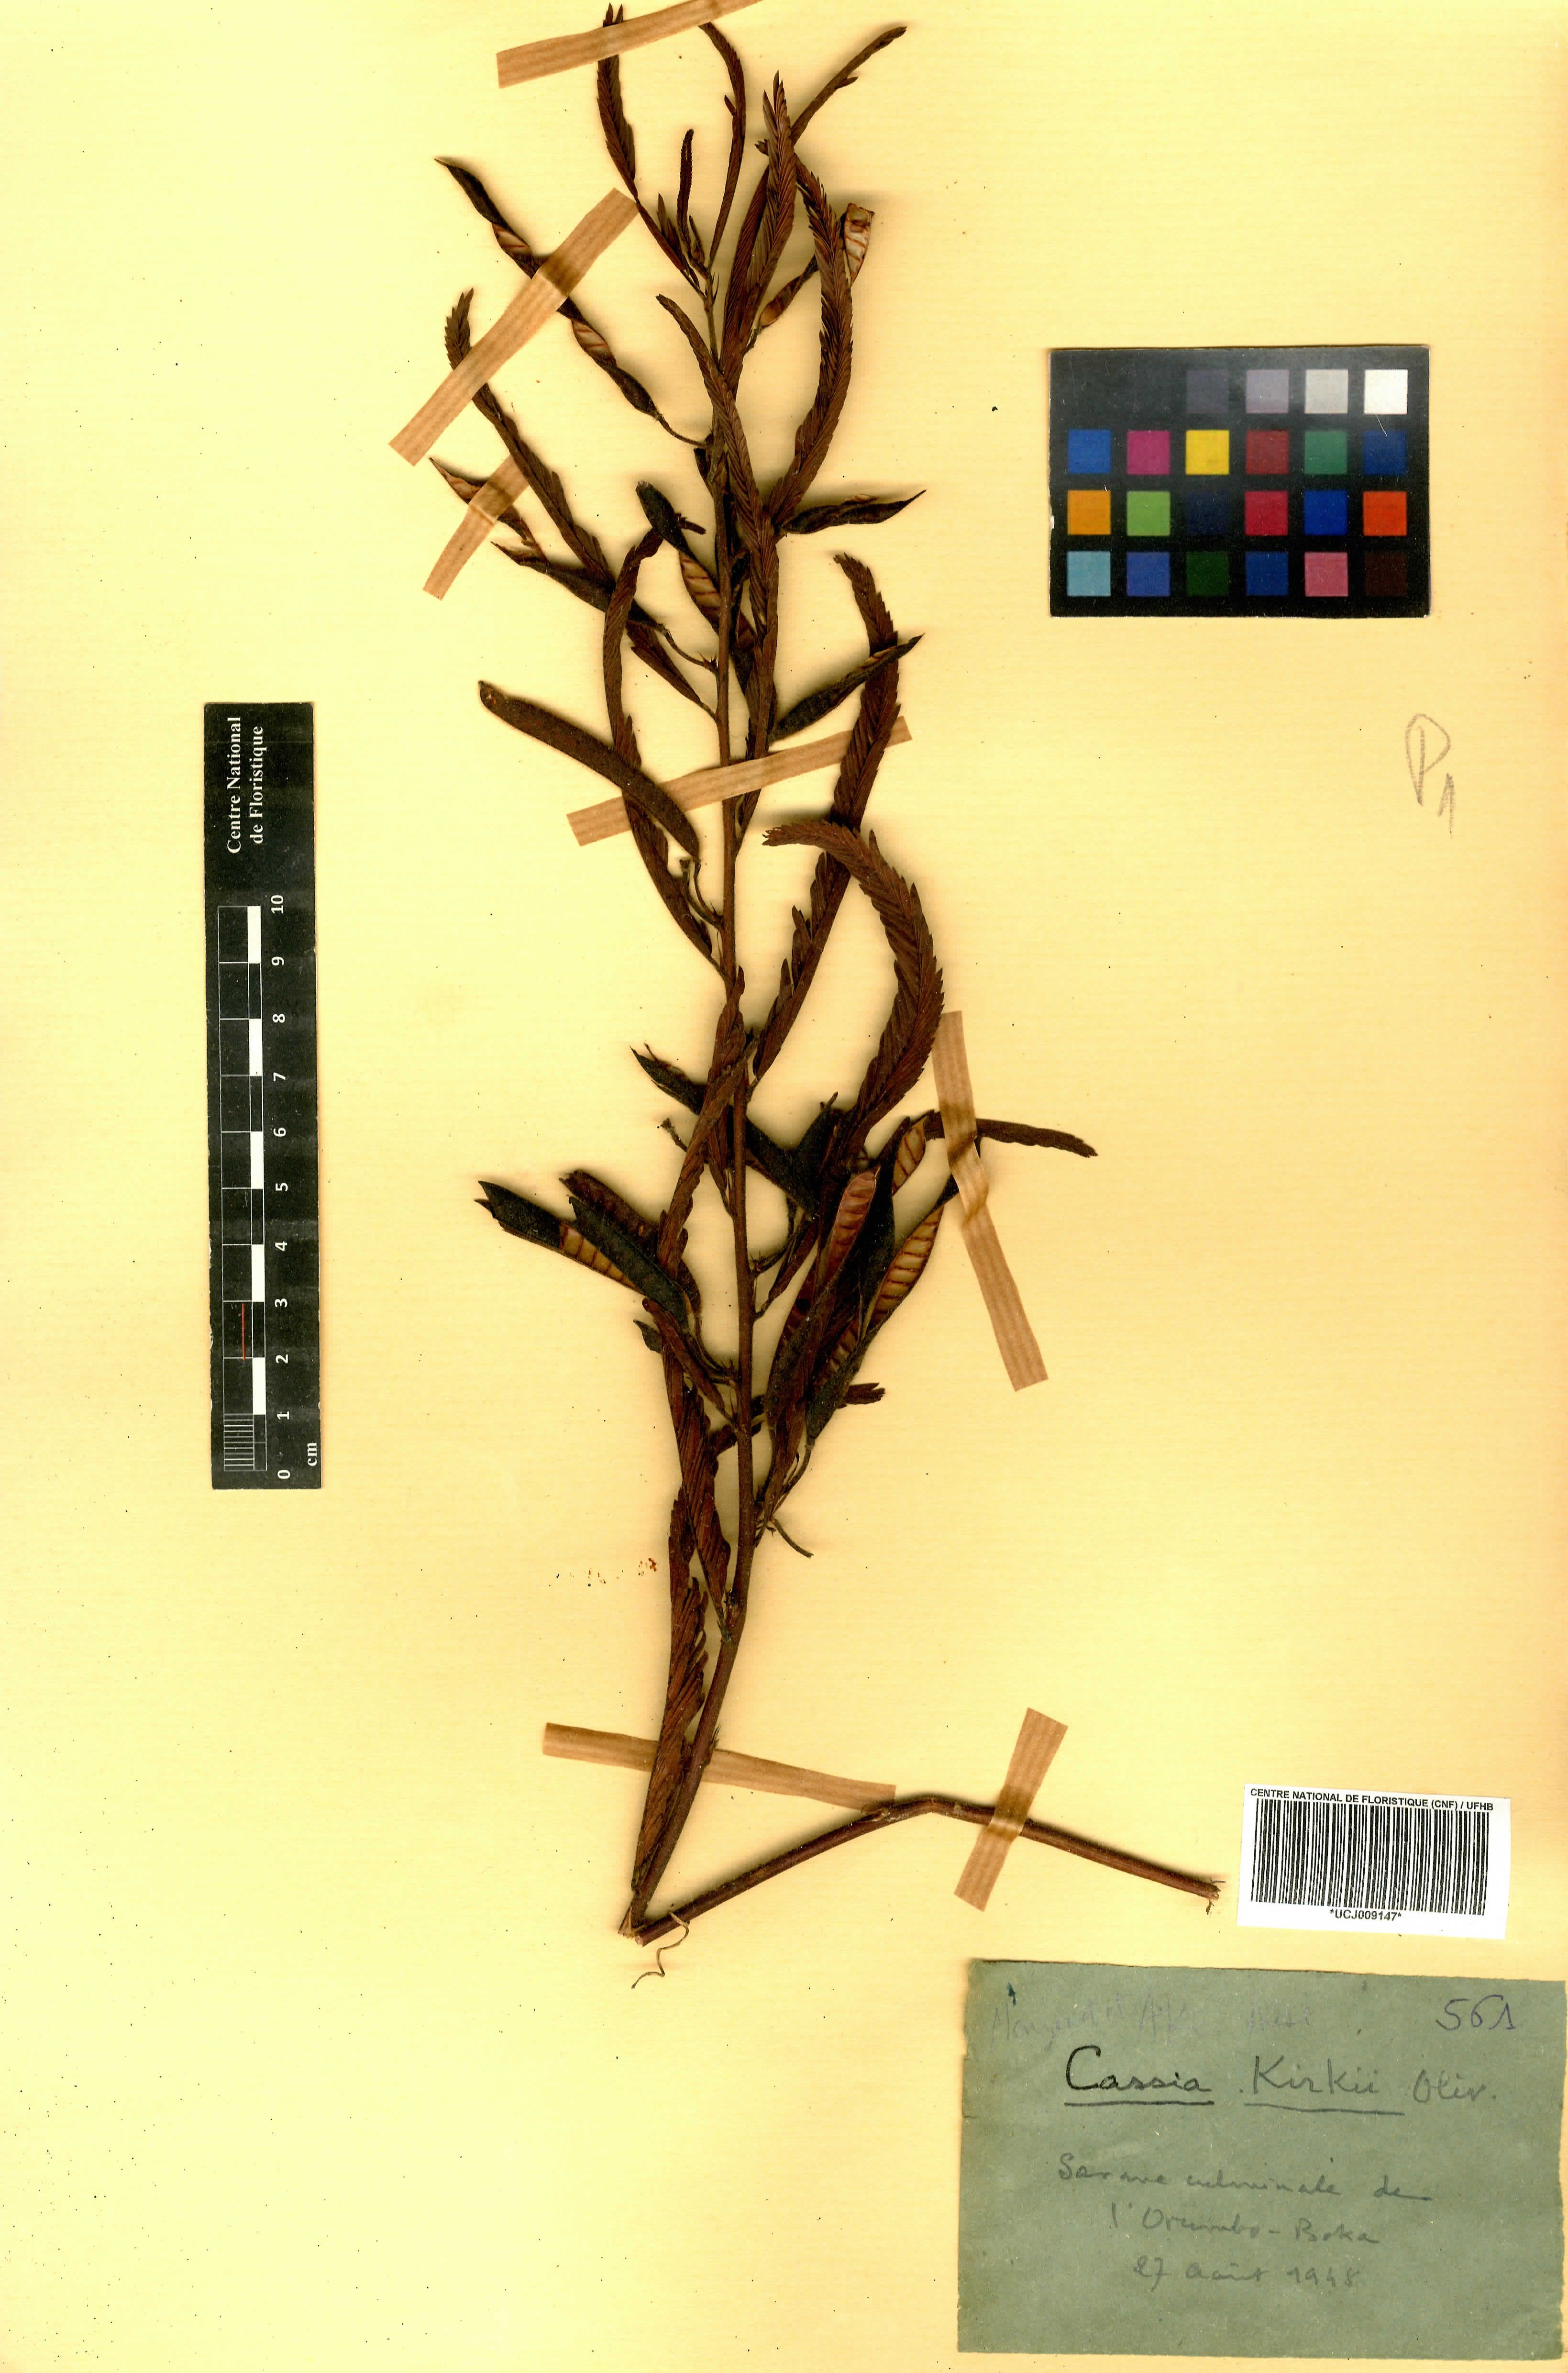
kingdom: Plantae
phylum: Tracheophyta
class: Magnoliopsida
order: Fabales
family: Fabaceae
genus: Chamaecrista
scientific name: Chamaecrista kirkii
